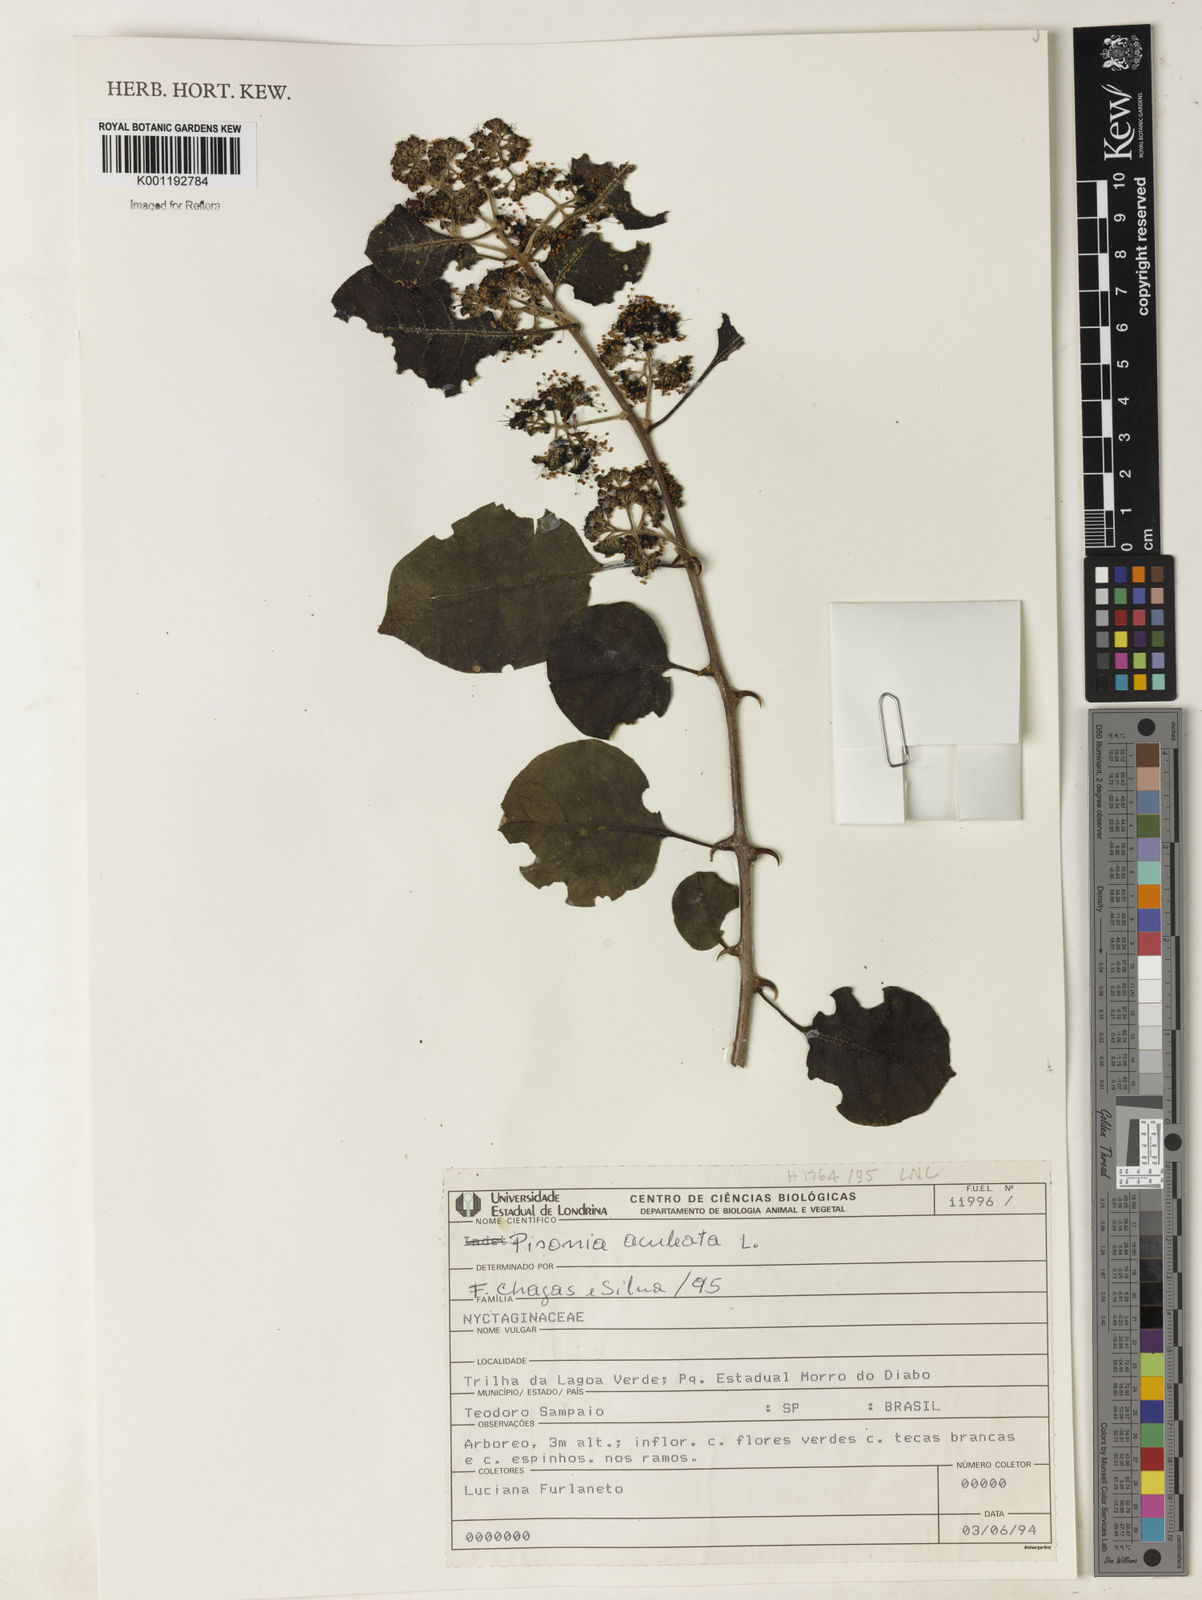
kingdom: Plantae
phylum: Tracheophyta
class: Magnoliopsida
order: Caryophyllales
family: Nyctaginaceae
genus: Pisonia
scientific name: Pisonia aculeata
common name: Cockspur vine
